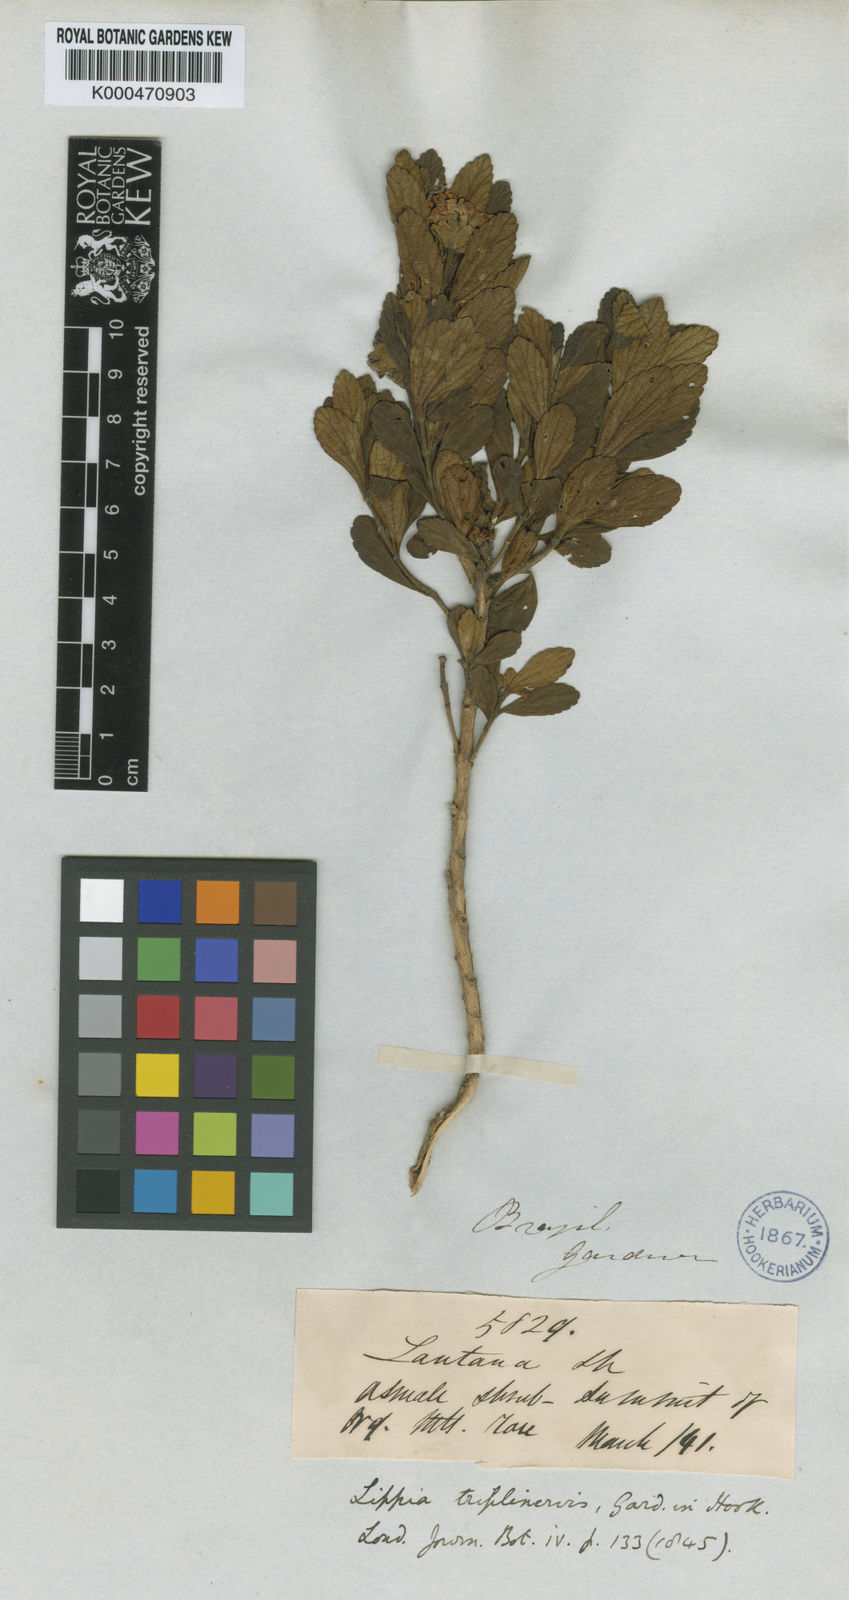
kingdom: Plantae
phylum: Tracheophyta
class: Magnoliopsida
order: Lamiales
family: Verbenaceae
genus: Lippia
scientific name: Lippia triplinervis
